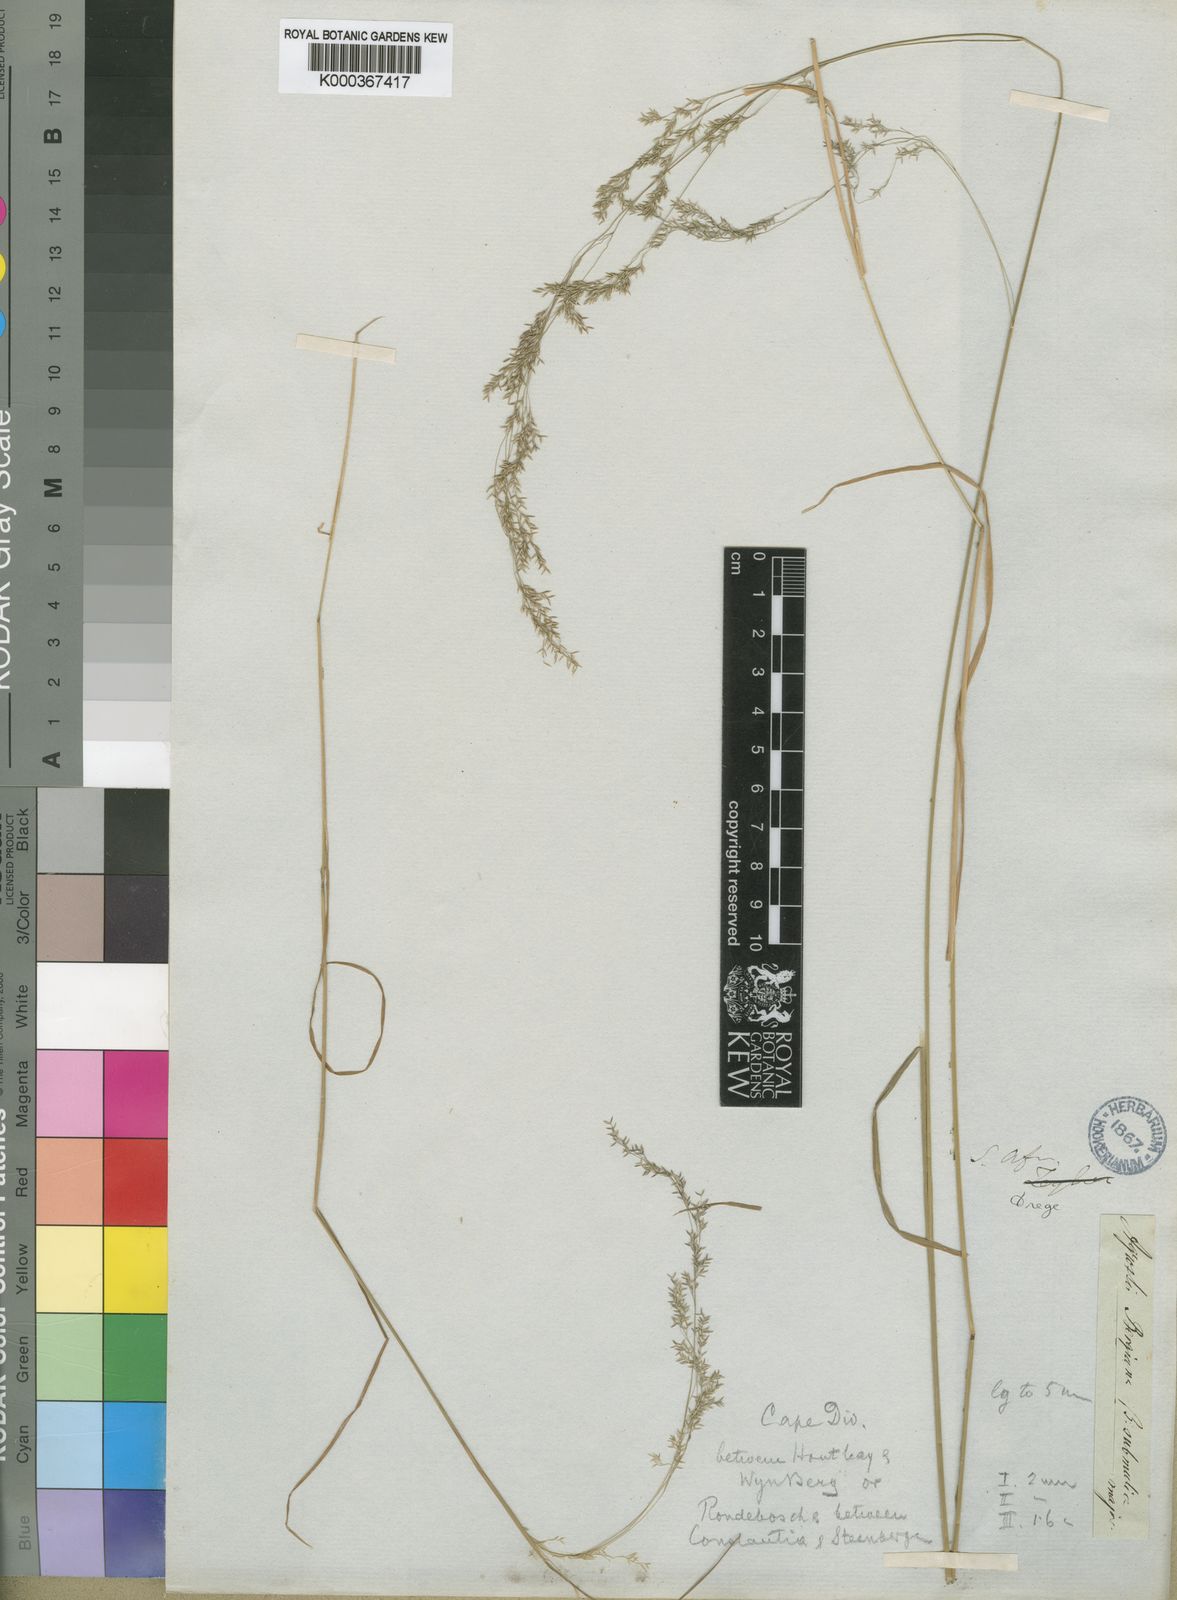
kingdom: Plantae
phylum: Tracheophyta
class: Liliopsida
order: Poales
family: Poaceae
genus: Agrostis
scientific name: Agrostis bergiana
